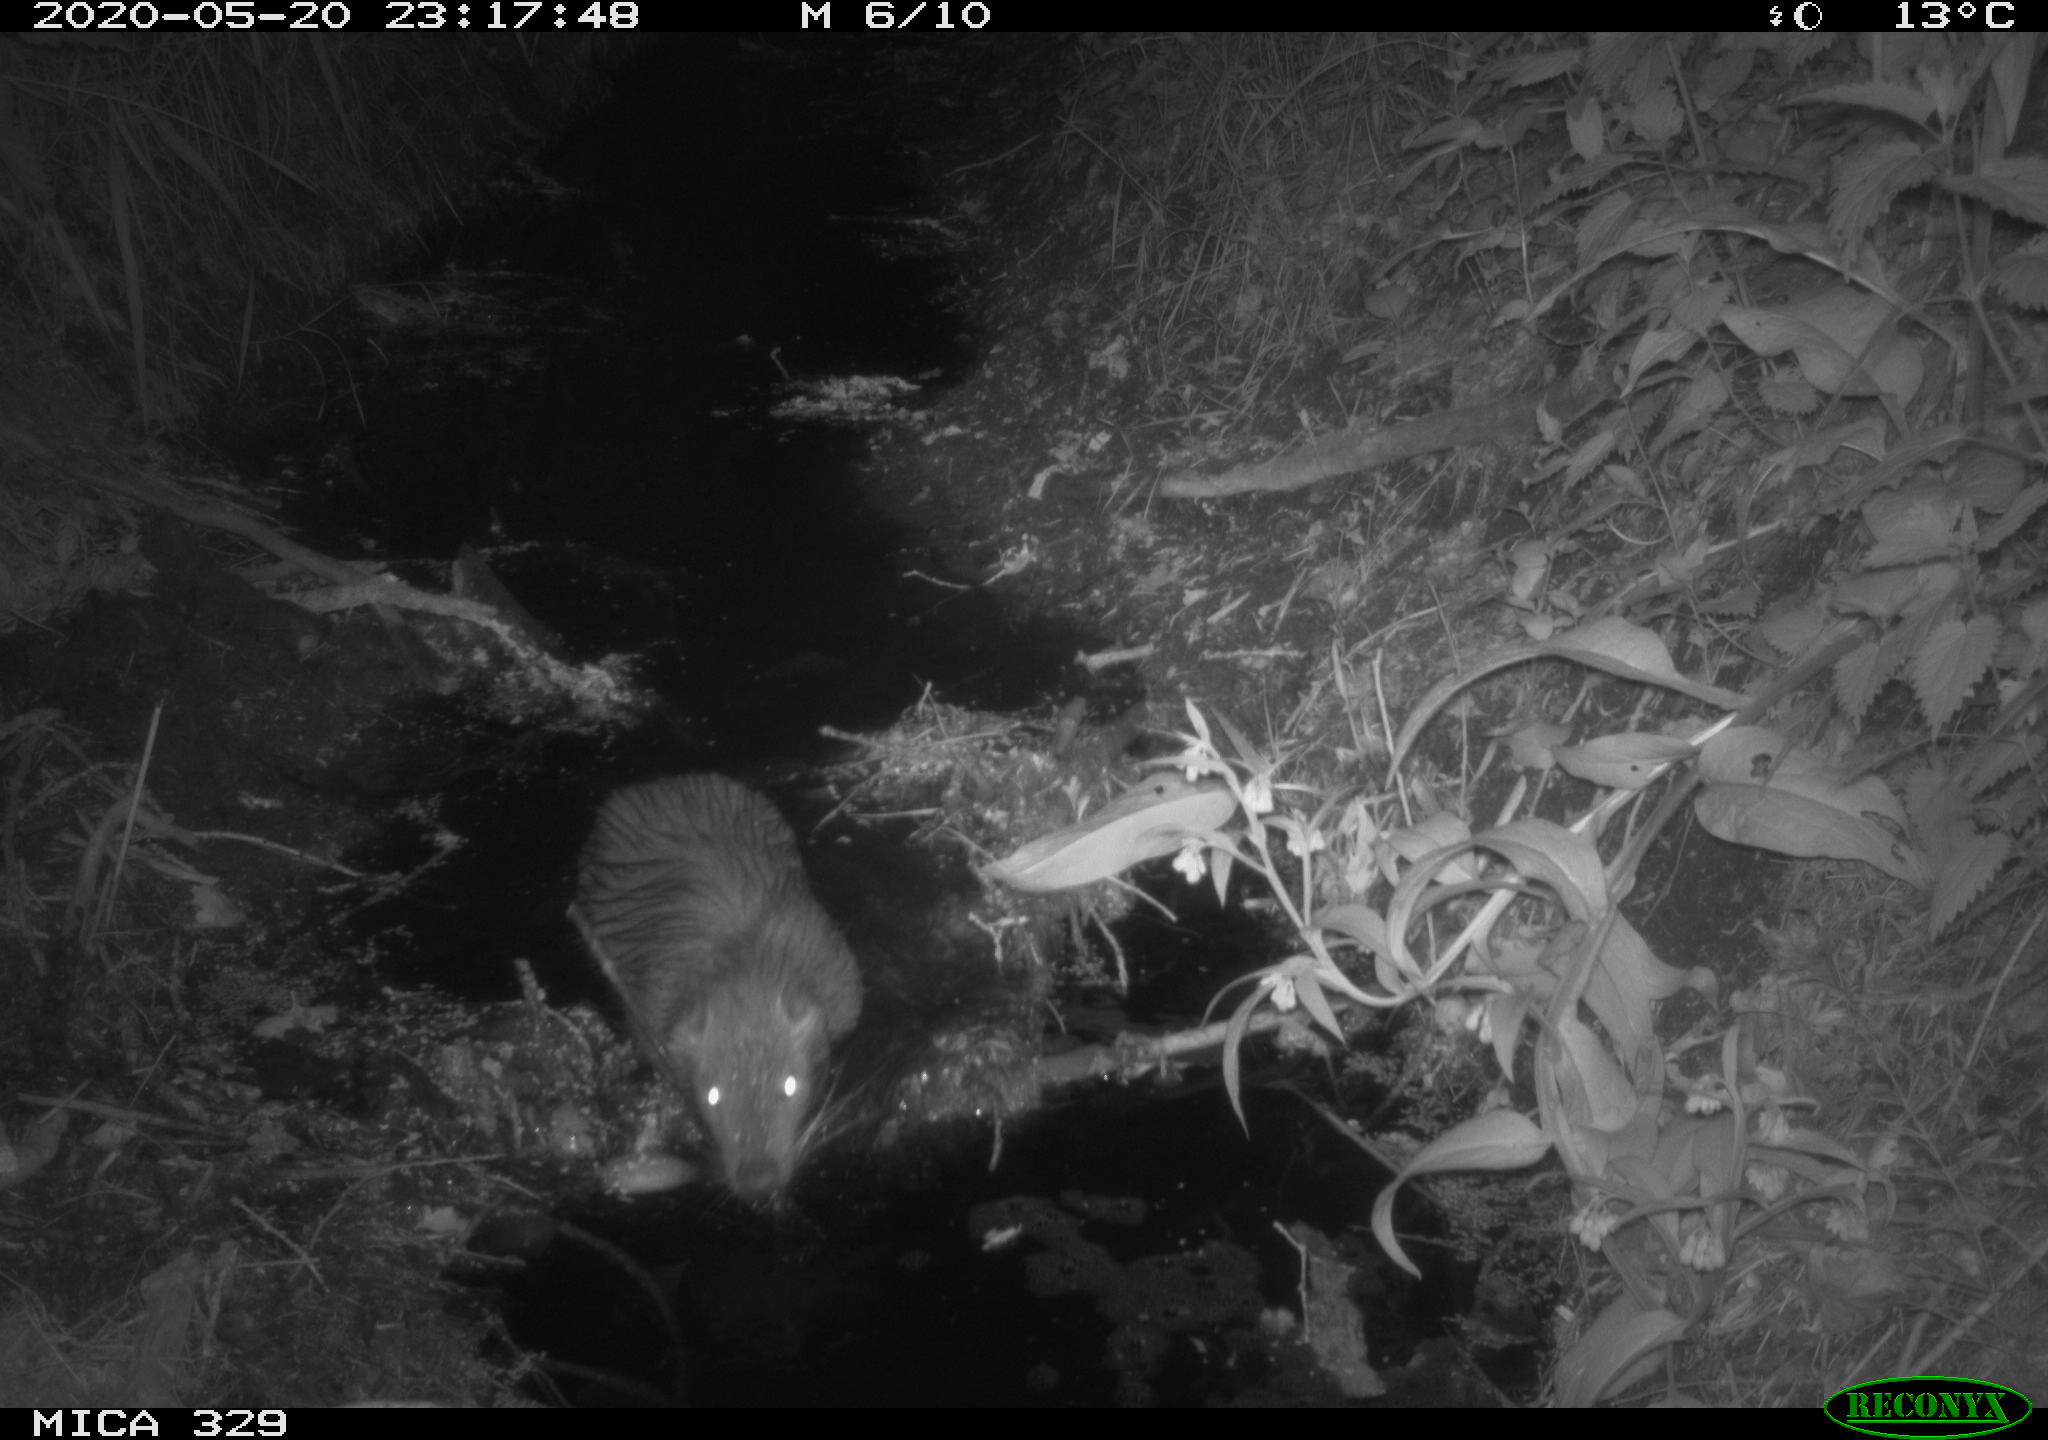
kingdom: Animalia
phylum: Chordata
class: Mammalia
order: Rodentia
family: Myocastoridae
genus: Myocastor
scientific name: Myocastor coypus
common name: Coypu
